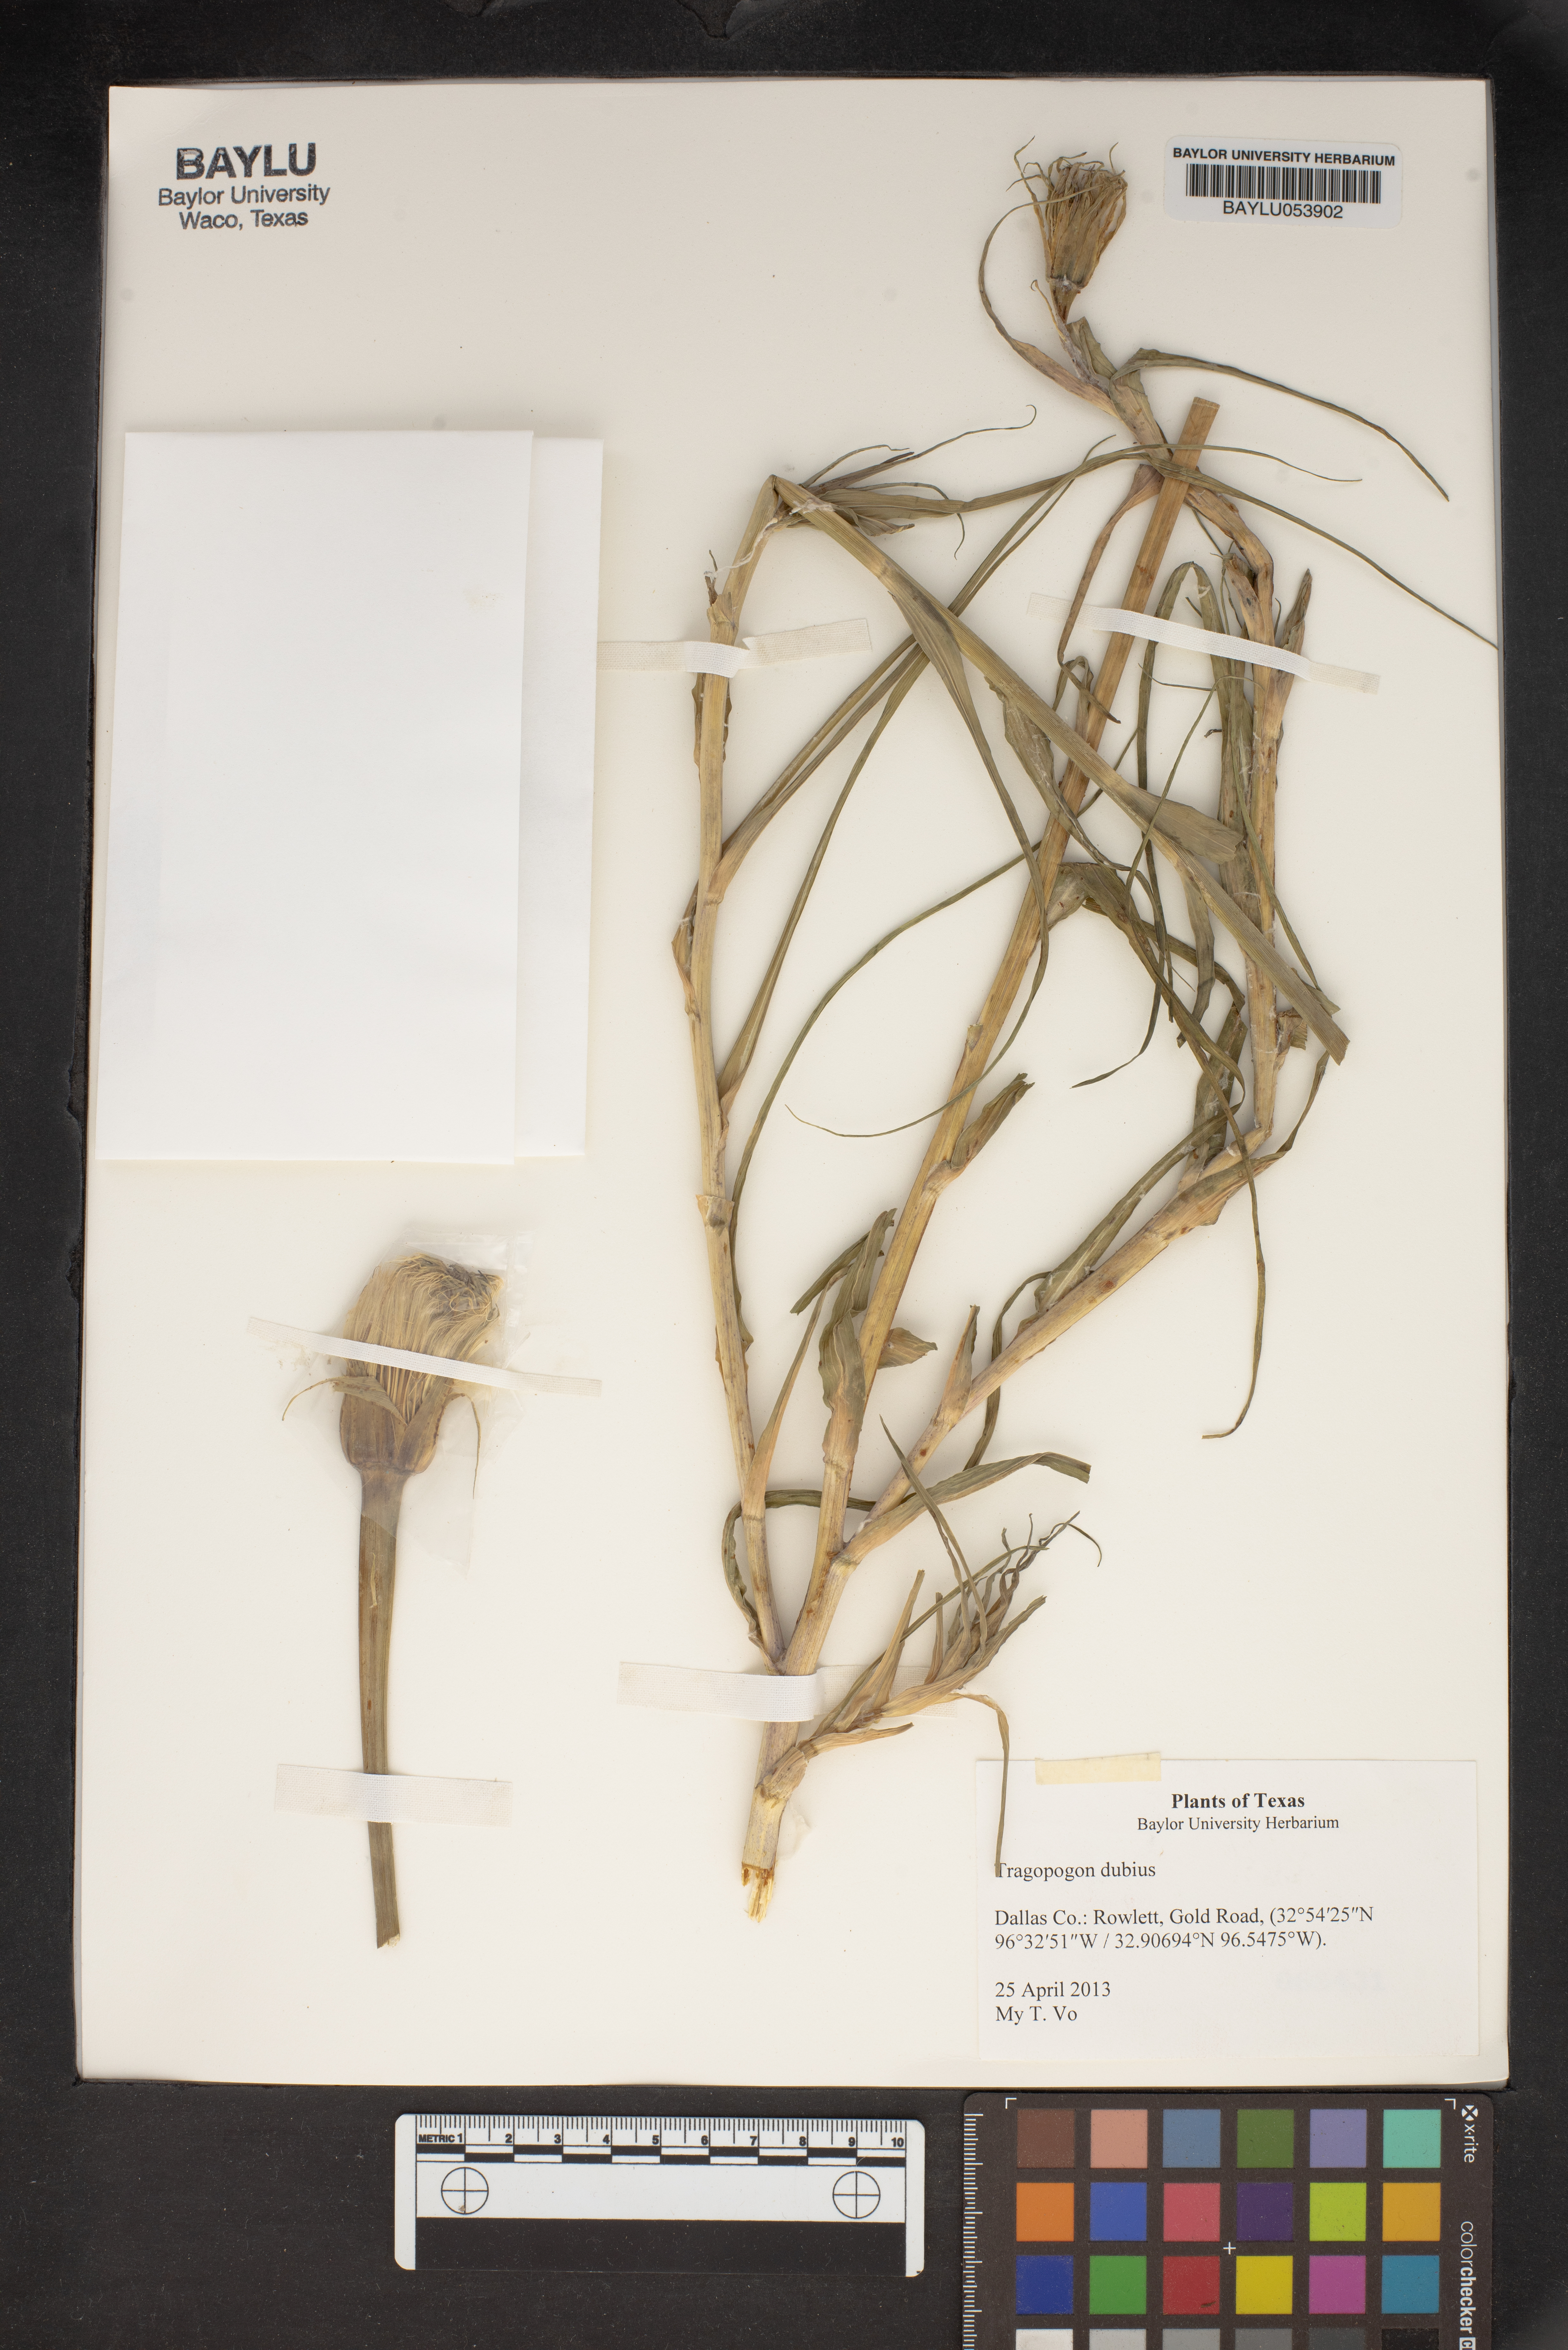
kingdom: Plantae
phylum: Tracheophyta
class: Magnoliopsida
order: Asterales
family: Asteraceae
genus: Tragopogon
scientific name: Tragopogon dubius
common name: Yellow salsify
